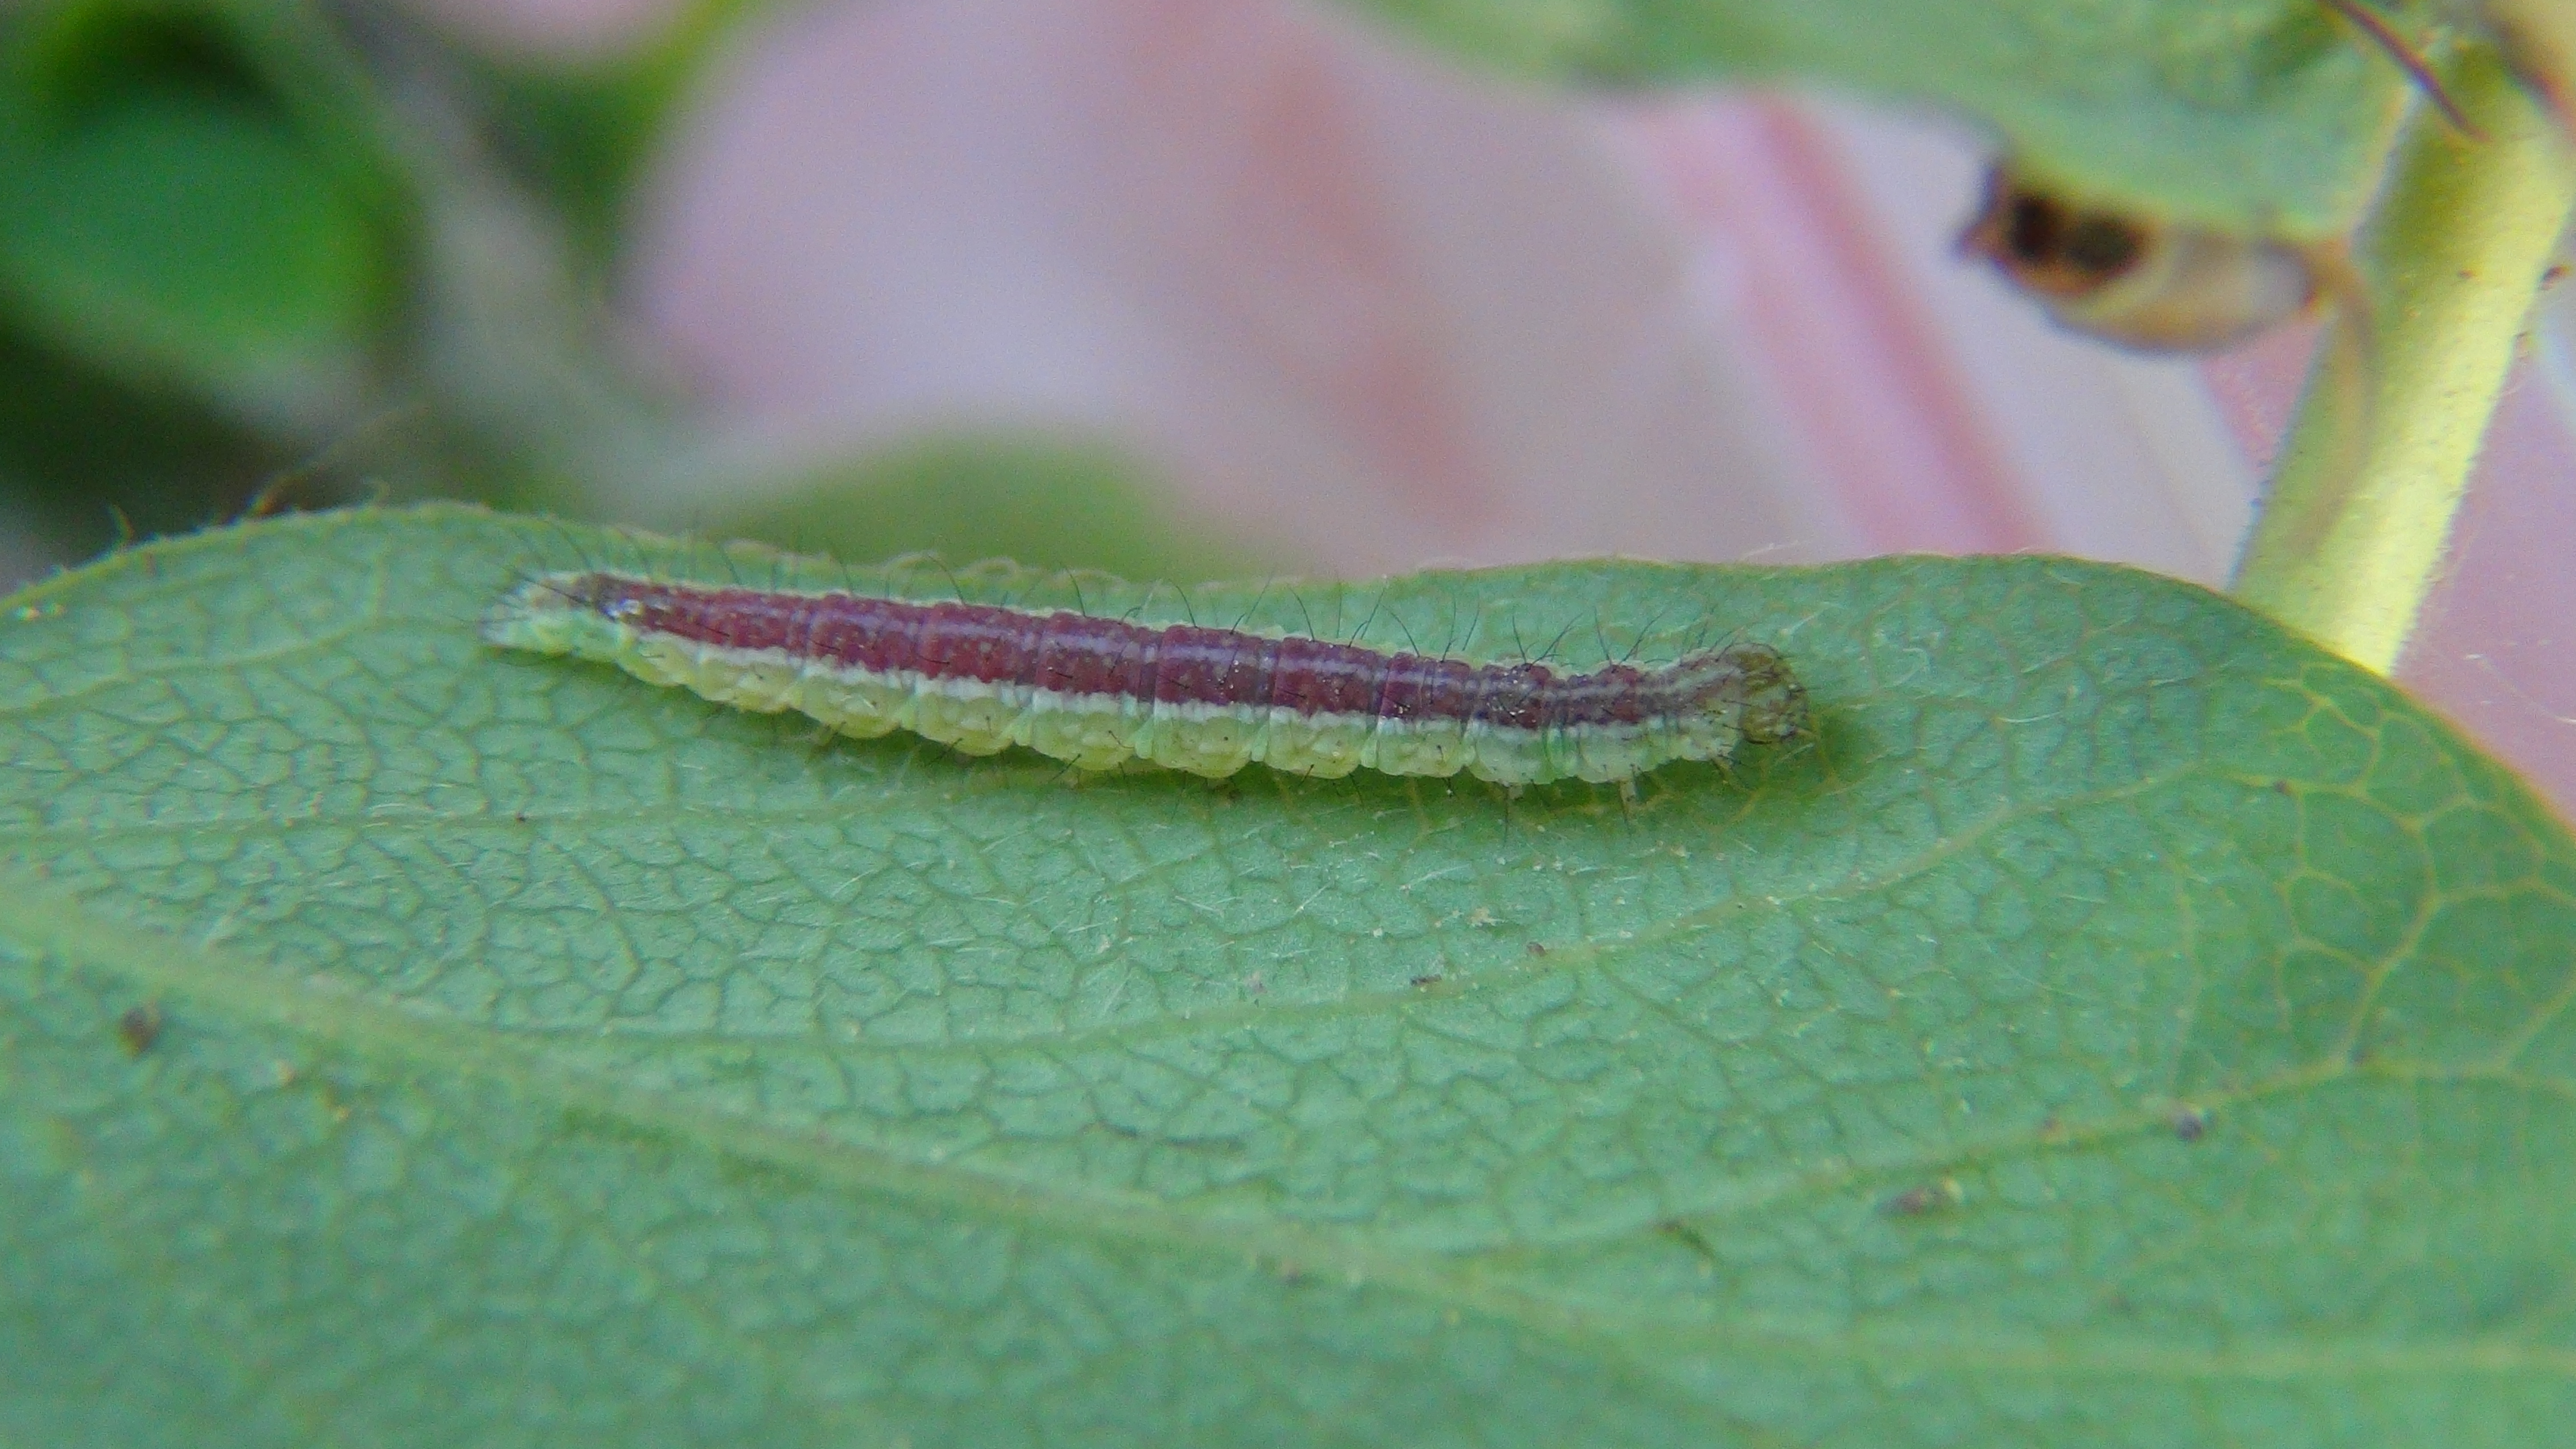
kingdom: Animalia
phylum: Arthropoda
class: Insecta
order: Lepidoptera
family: Ypsolophidae
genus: Ypsolopha
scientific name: Ypsolopha dentella
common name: Honeysuckle moth
